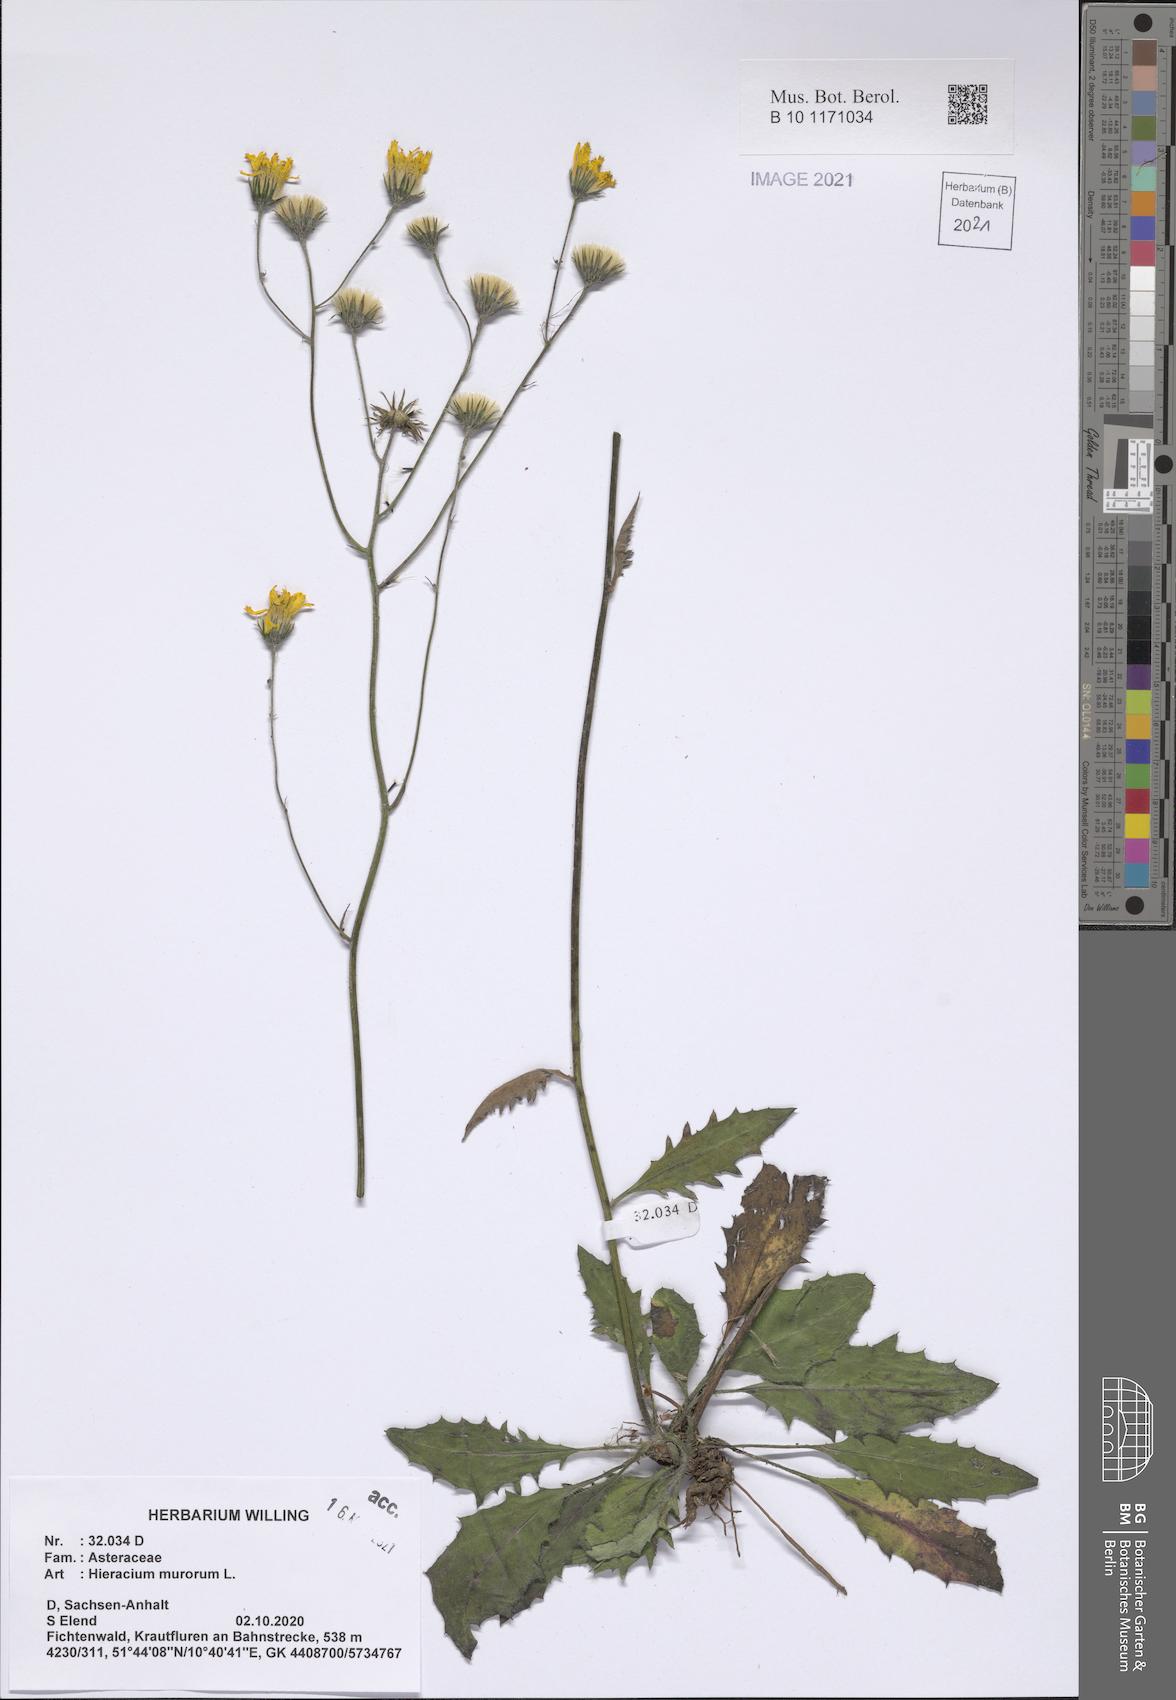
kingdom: Plantae
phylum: Tracheophyta
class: Magnoliopsida
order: Asterales
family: Asteraceae
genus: Hieracium
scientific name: Hieracium murorum
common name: Wall hawkweed
